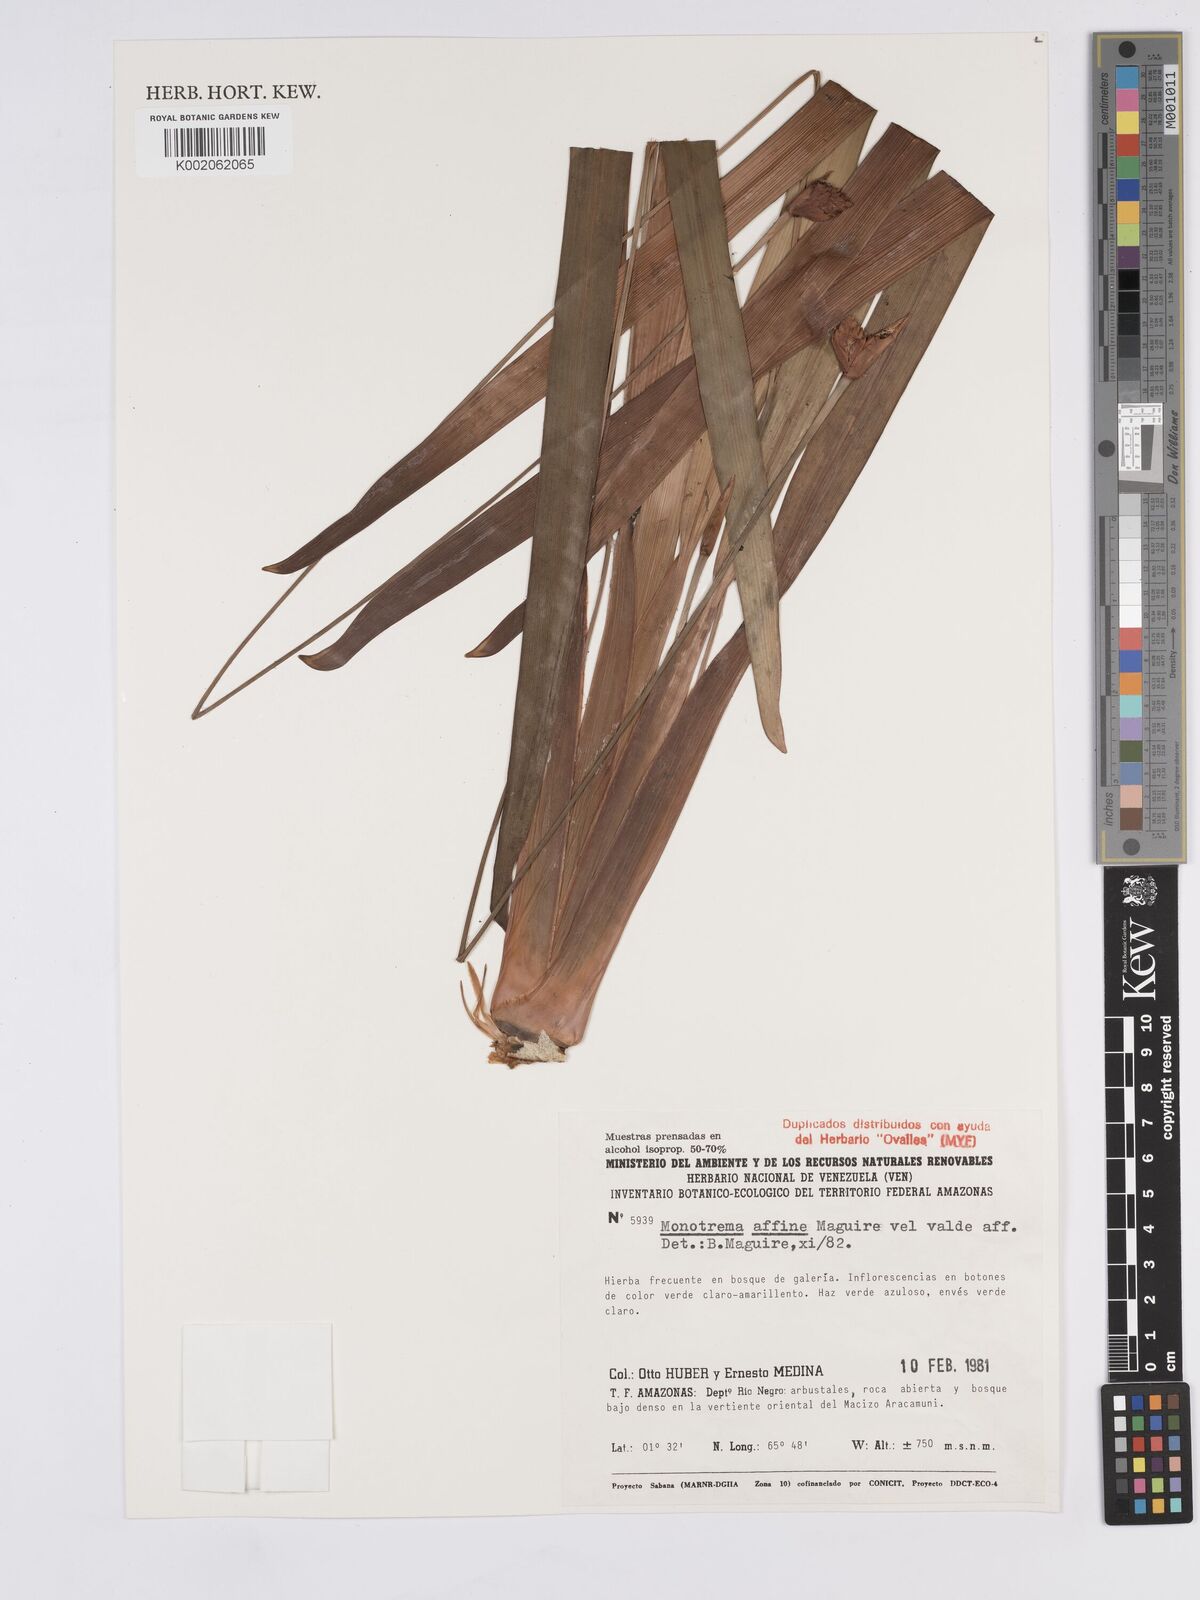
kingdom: Plantae
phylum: Tracheophyta
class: Liliopsida
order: Poales
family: Rapateaceae
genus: Monotrema
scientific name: Monotrema affine
